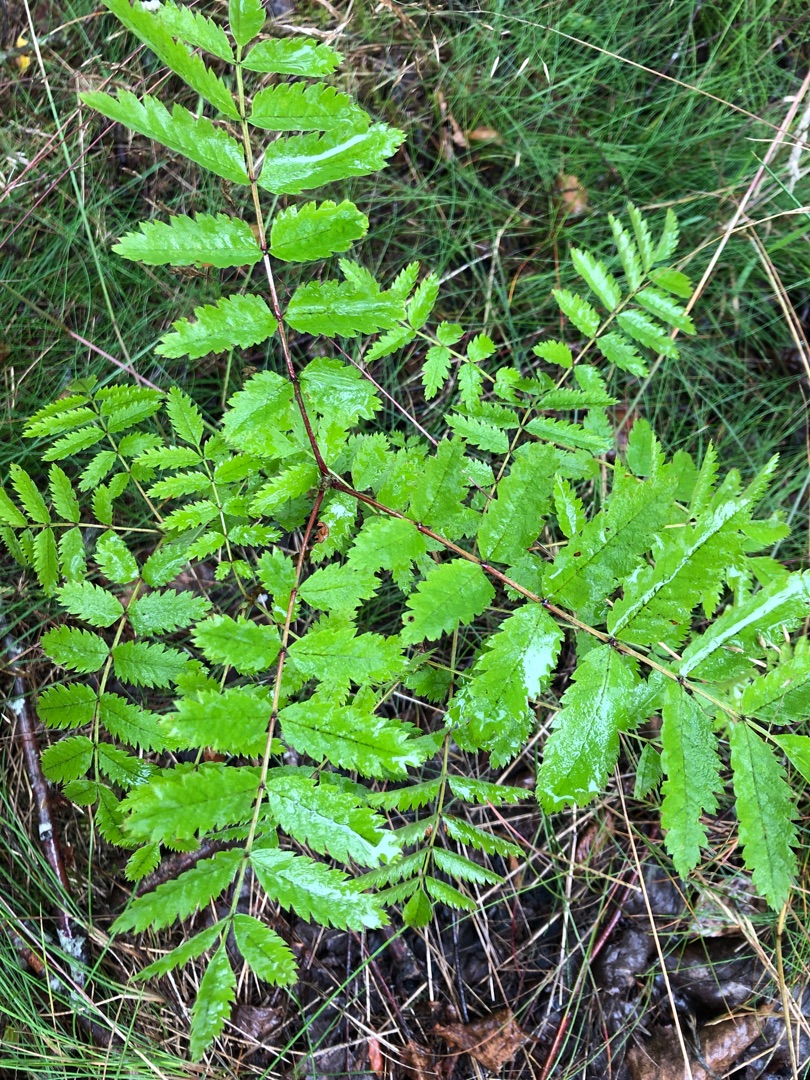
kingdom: Plantae
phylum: Tracheophyta
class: Magnoliopsida
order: Rosales
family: Rosaceae
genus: Sorbus
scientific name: Sorbus aucuparia
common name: Almindelig røn
